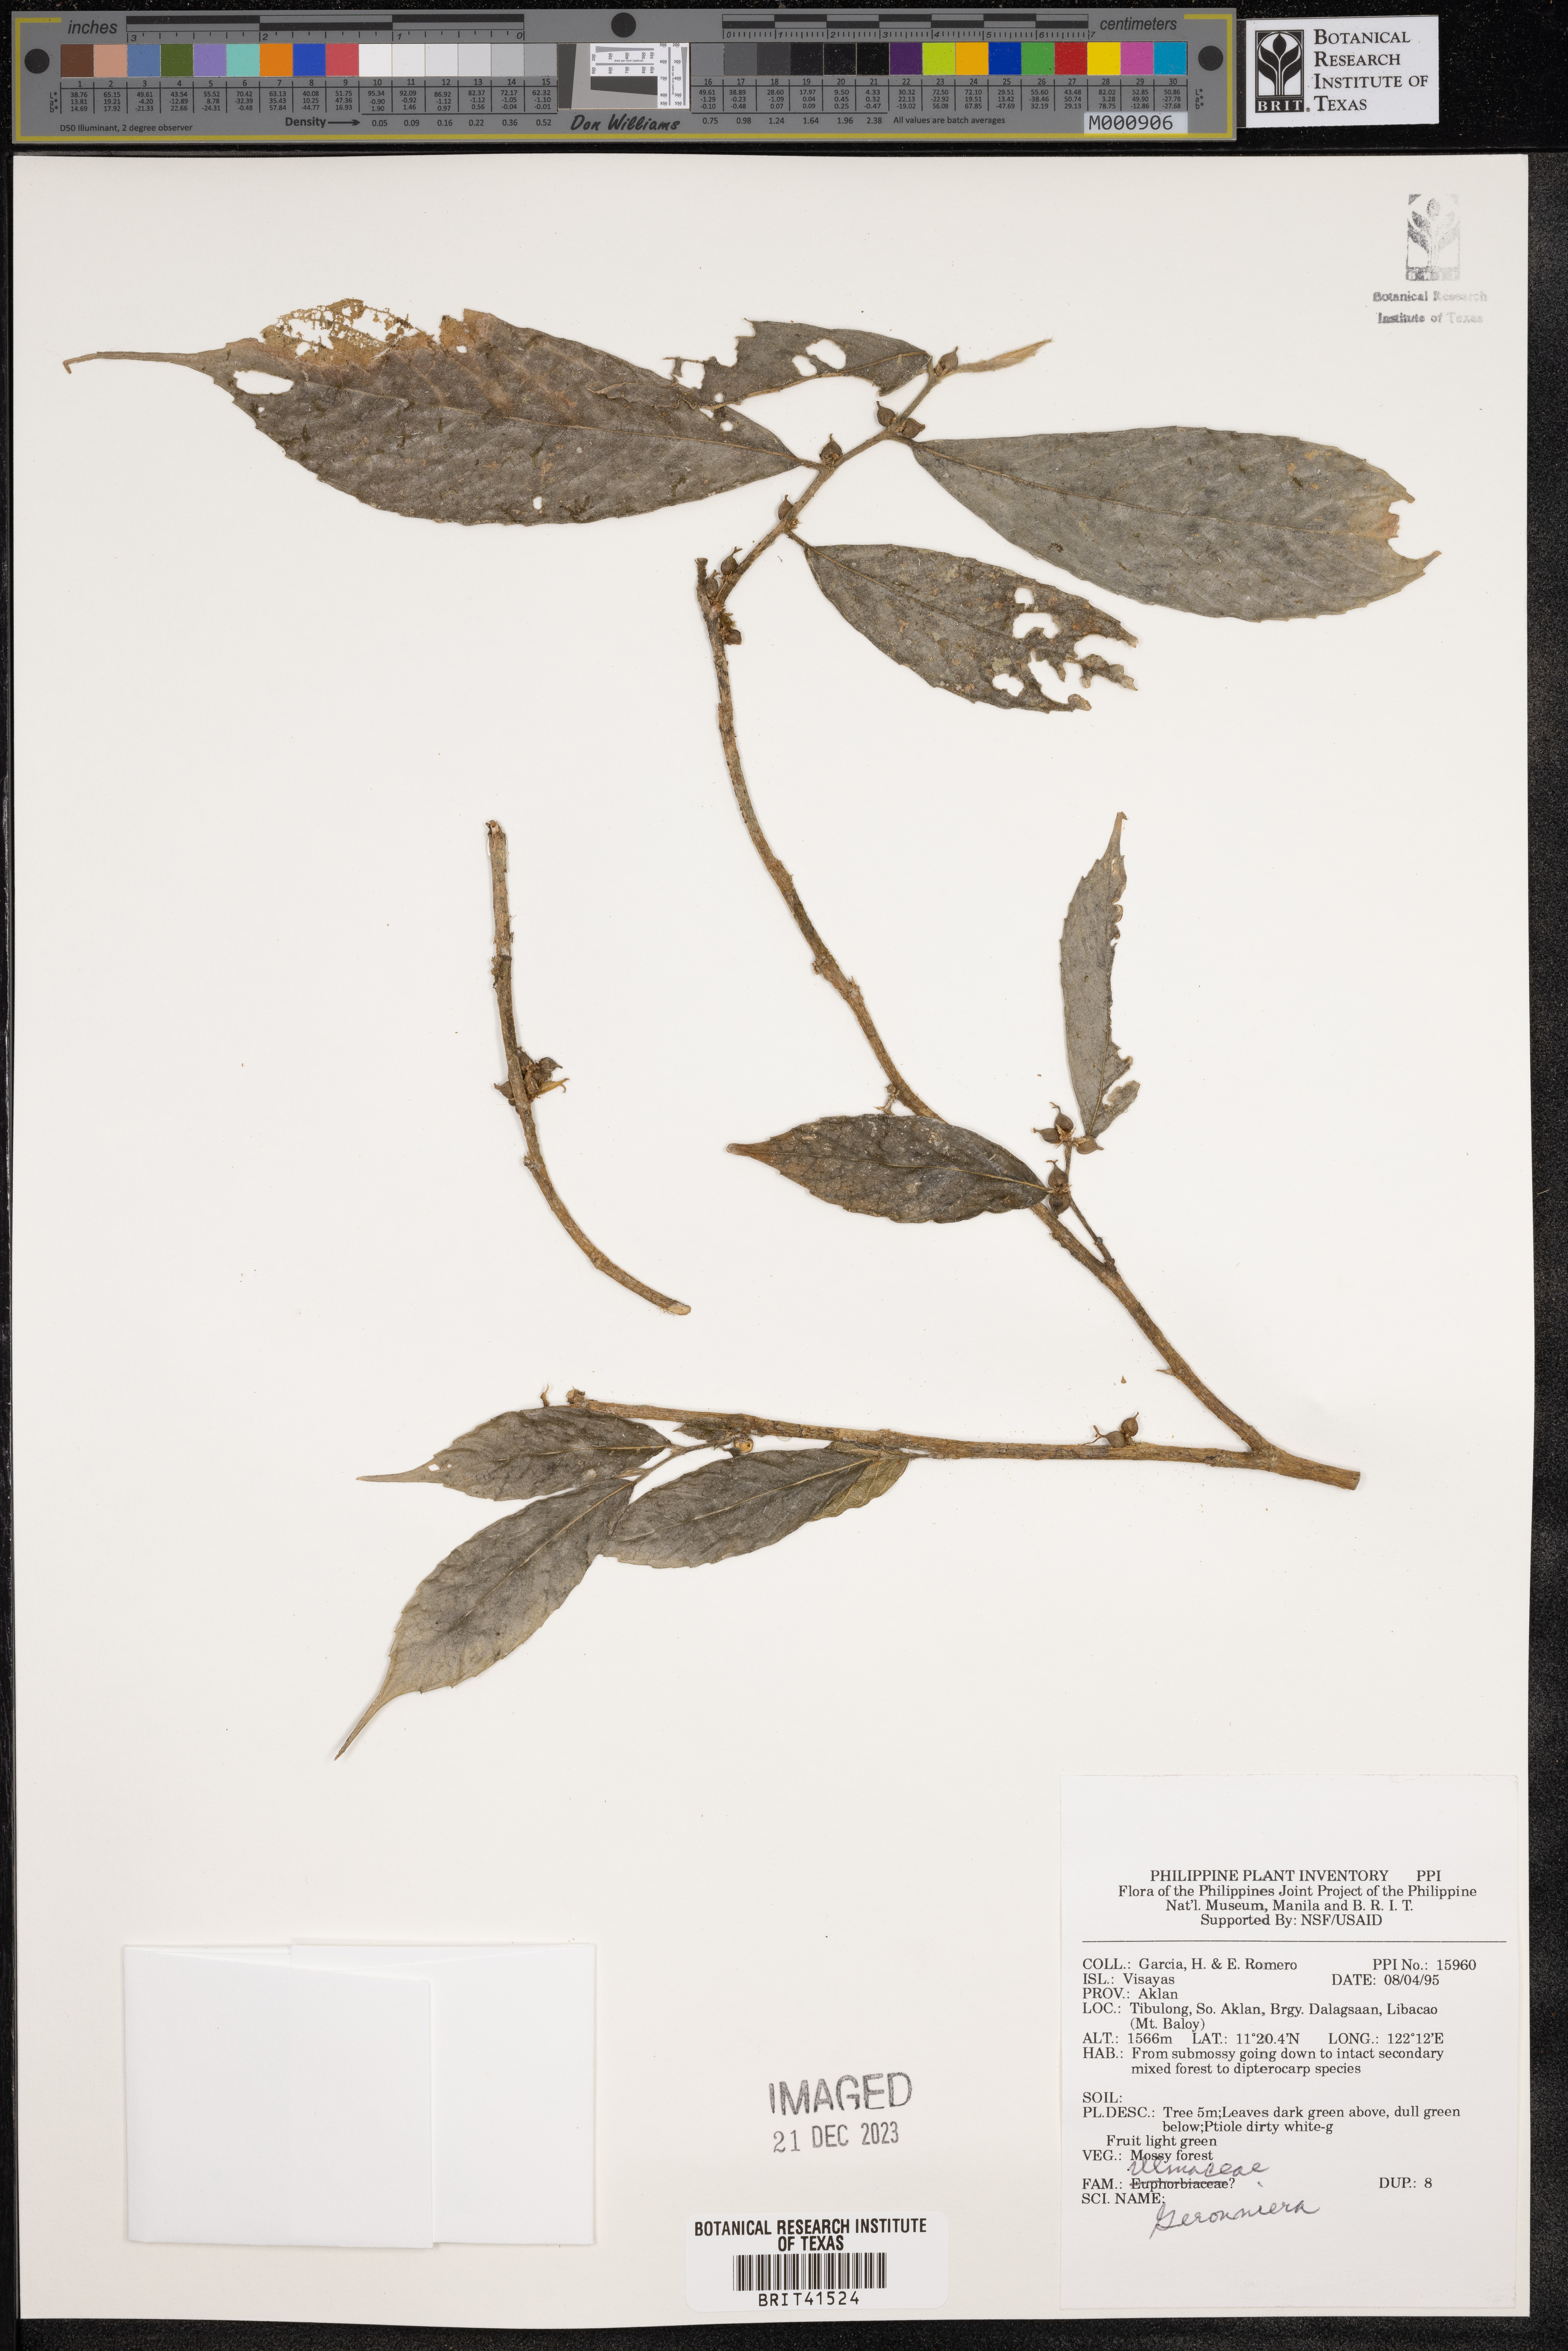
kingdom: Plantae
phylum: Tracheophyta
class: Magnoliopsida
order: Rosales
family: Cannabaceae
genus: Gironniera
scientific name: Gironniera
